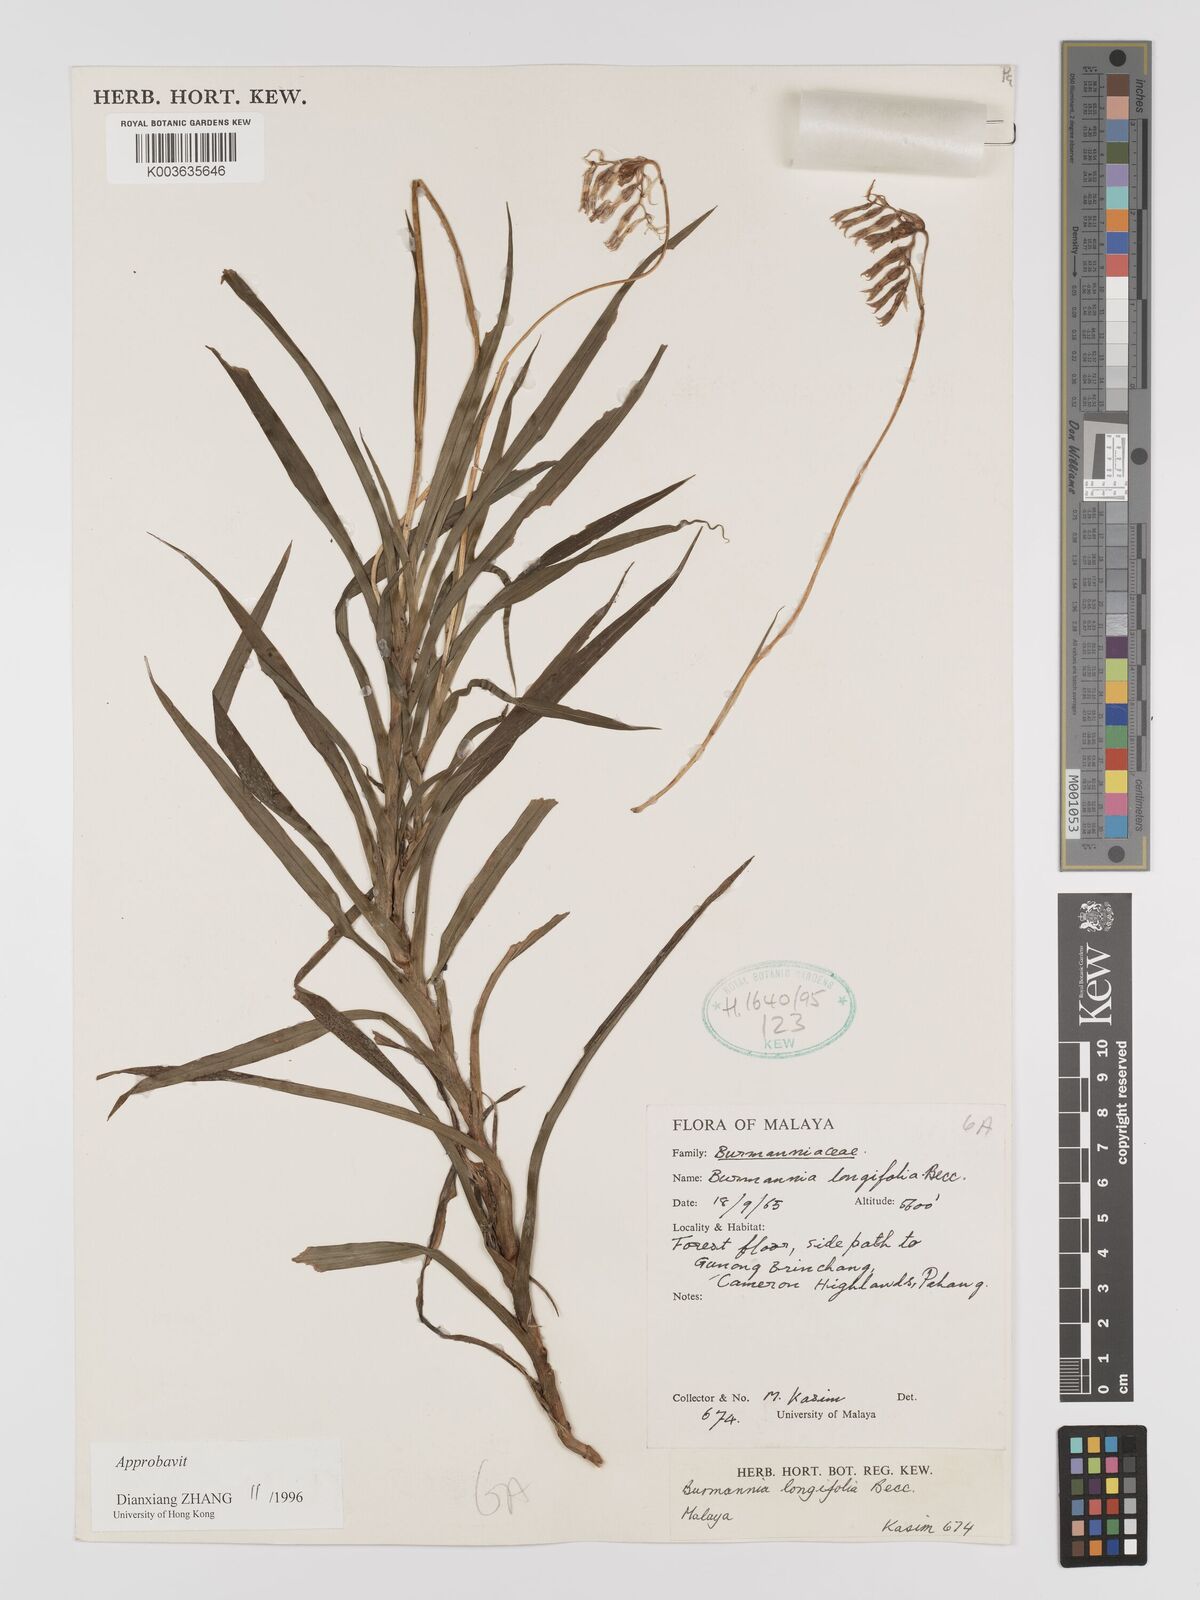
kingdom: Plantae
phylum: Tracheophyta
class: Liliopsida
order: Dioscoreales
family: Burmanniaceae
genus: Burmannia
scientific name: Burmannia longifolia
